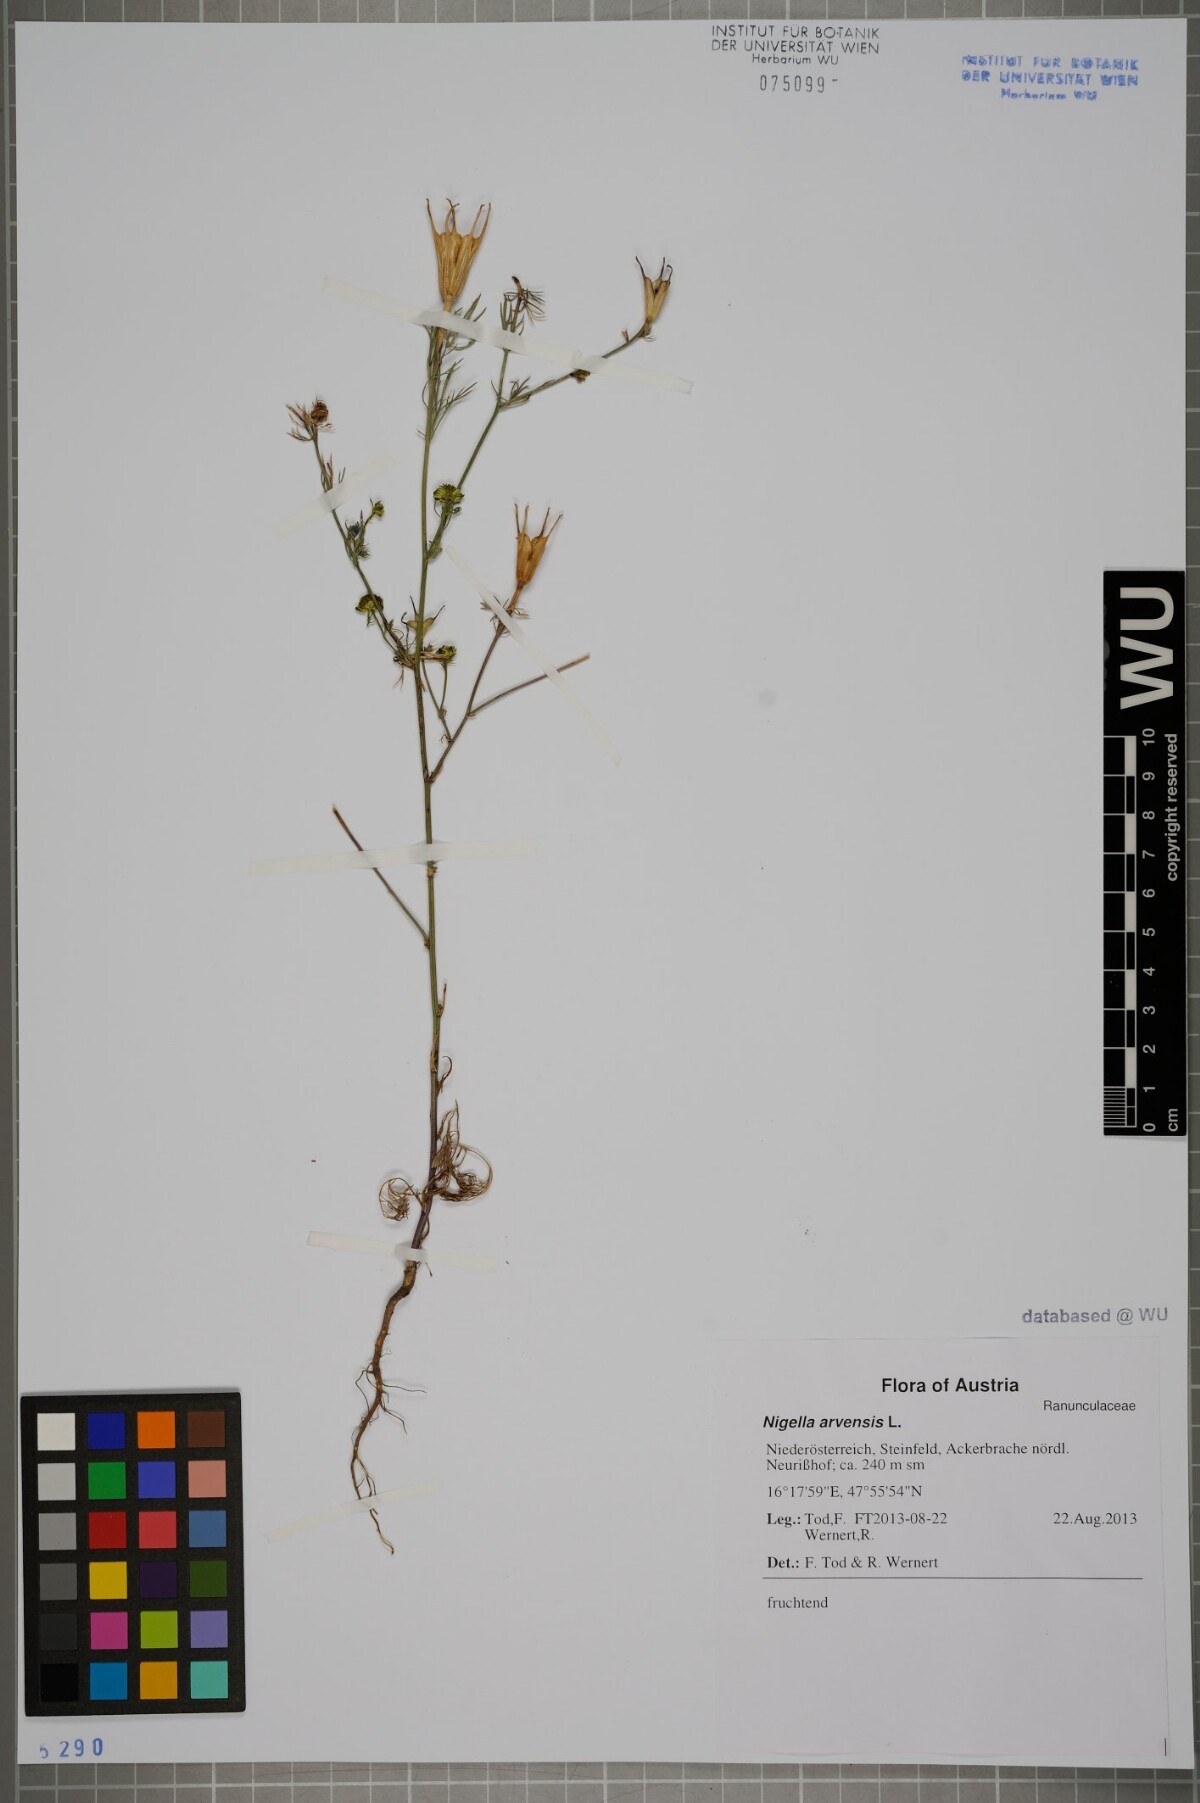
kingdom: Plantae
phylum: Tracheophyta
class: Magnoliopsida
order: Ranunculales
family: Ranunculaceae
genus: Nigella
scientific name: Nigella arvensis
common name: Wild fennel-flower
